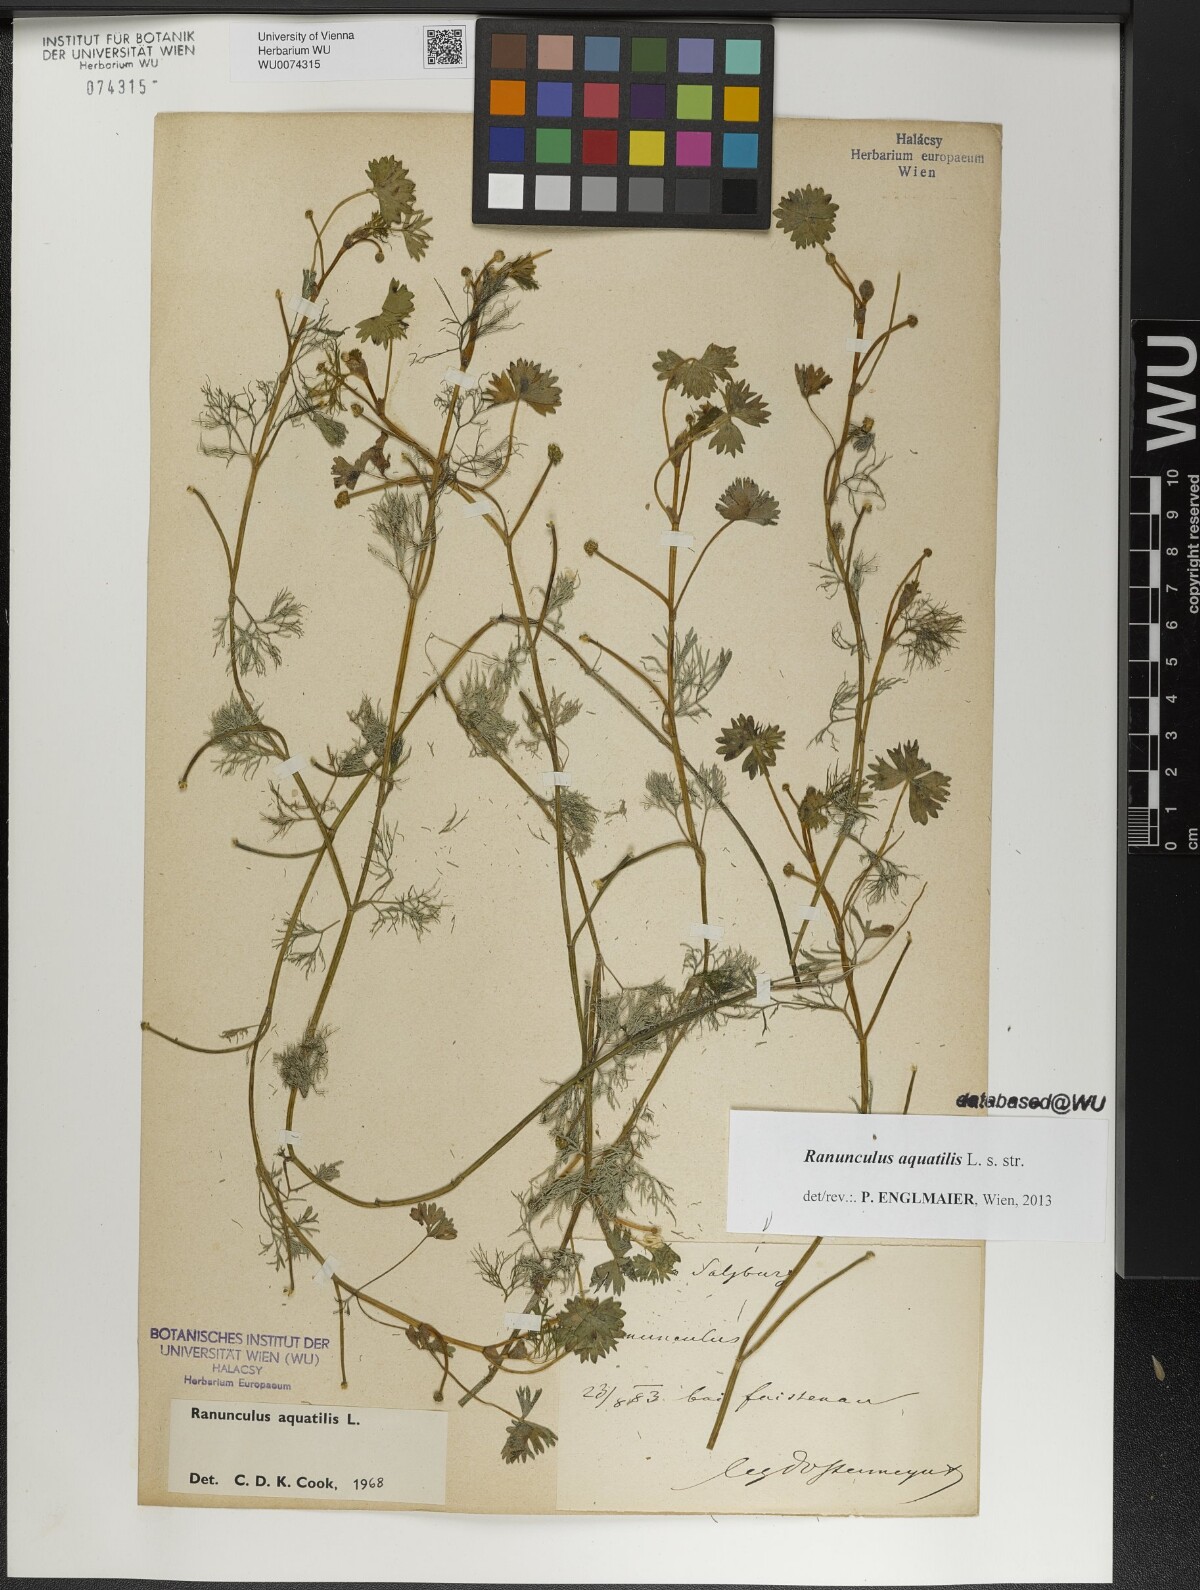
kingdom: Plantae
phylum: Tracheophyta
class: Magnoliopsida
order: Ranunculales
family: Ranunculaceae
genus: Ranunculus
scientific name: Ranunculus aquatilis
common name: Common water-crowfoot
